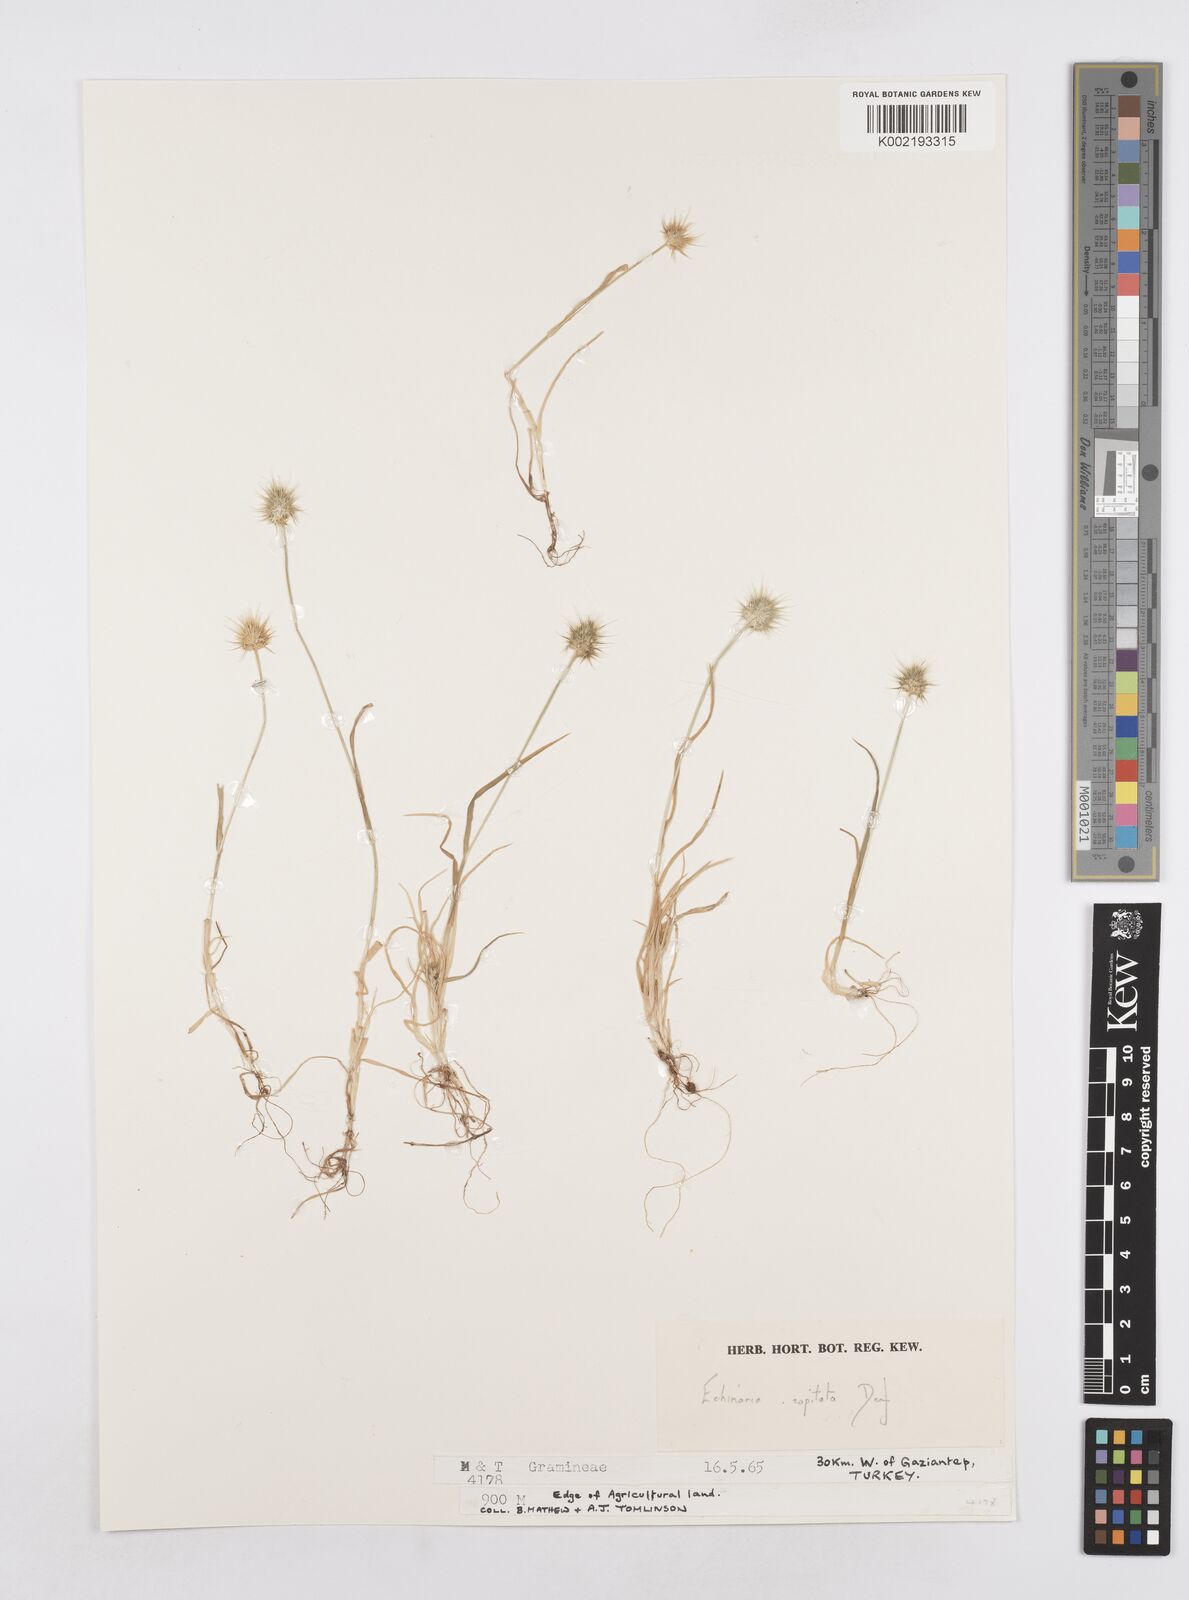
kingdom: Plantae
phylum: Tracheophyta
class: Liliopsida
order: Poales
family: Poaceae
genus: Echinaria
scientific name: Echinaria capitata
